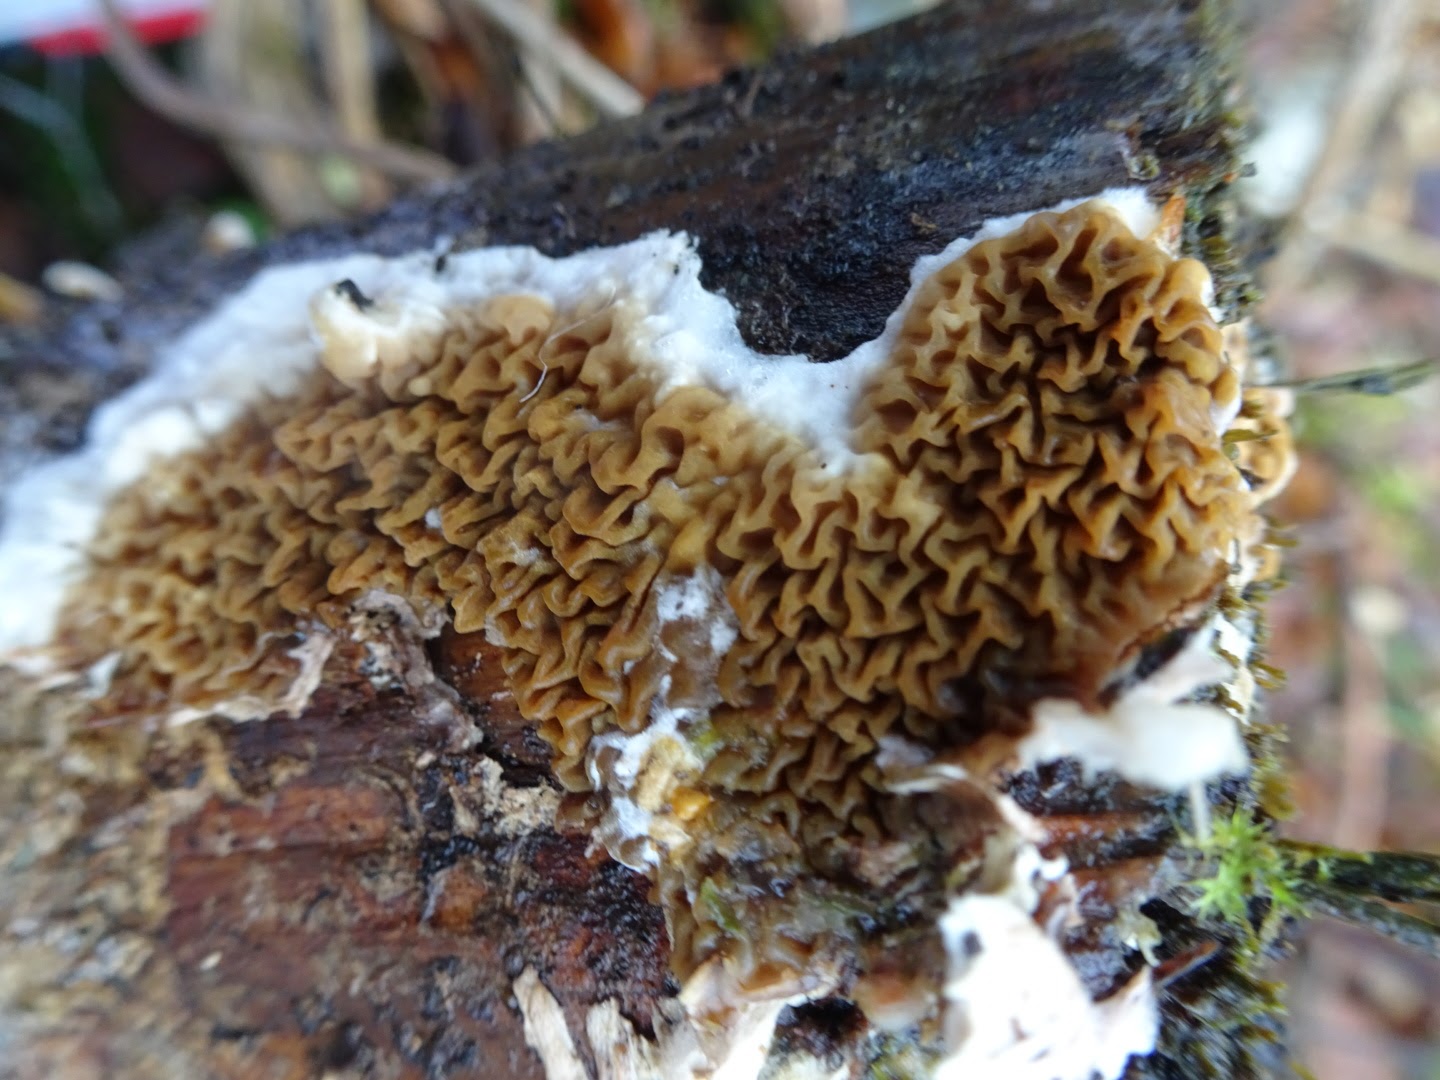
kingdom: Fungi
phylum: Basidiomycota
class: Agaricomycetes
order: Boletales
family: Serpulaceae
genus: Serpula
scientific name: Serpula himantioides
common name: tyndkødet hussvamp
